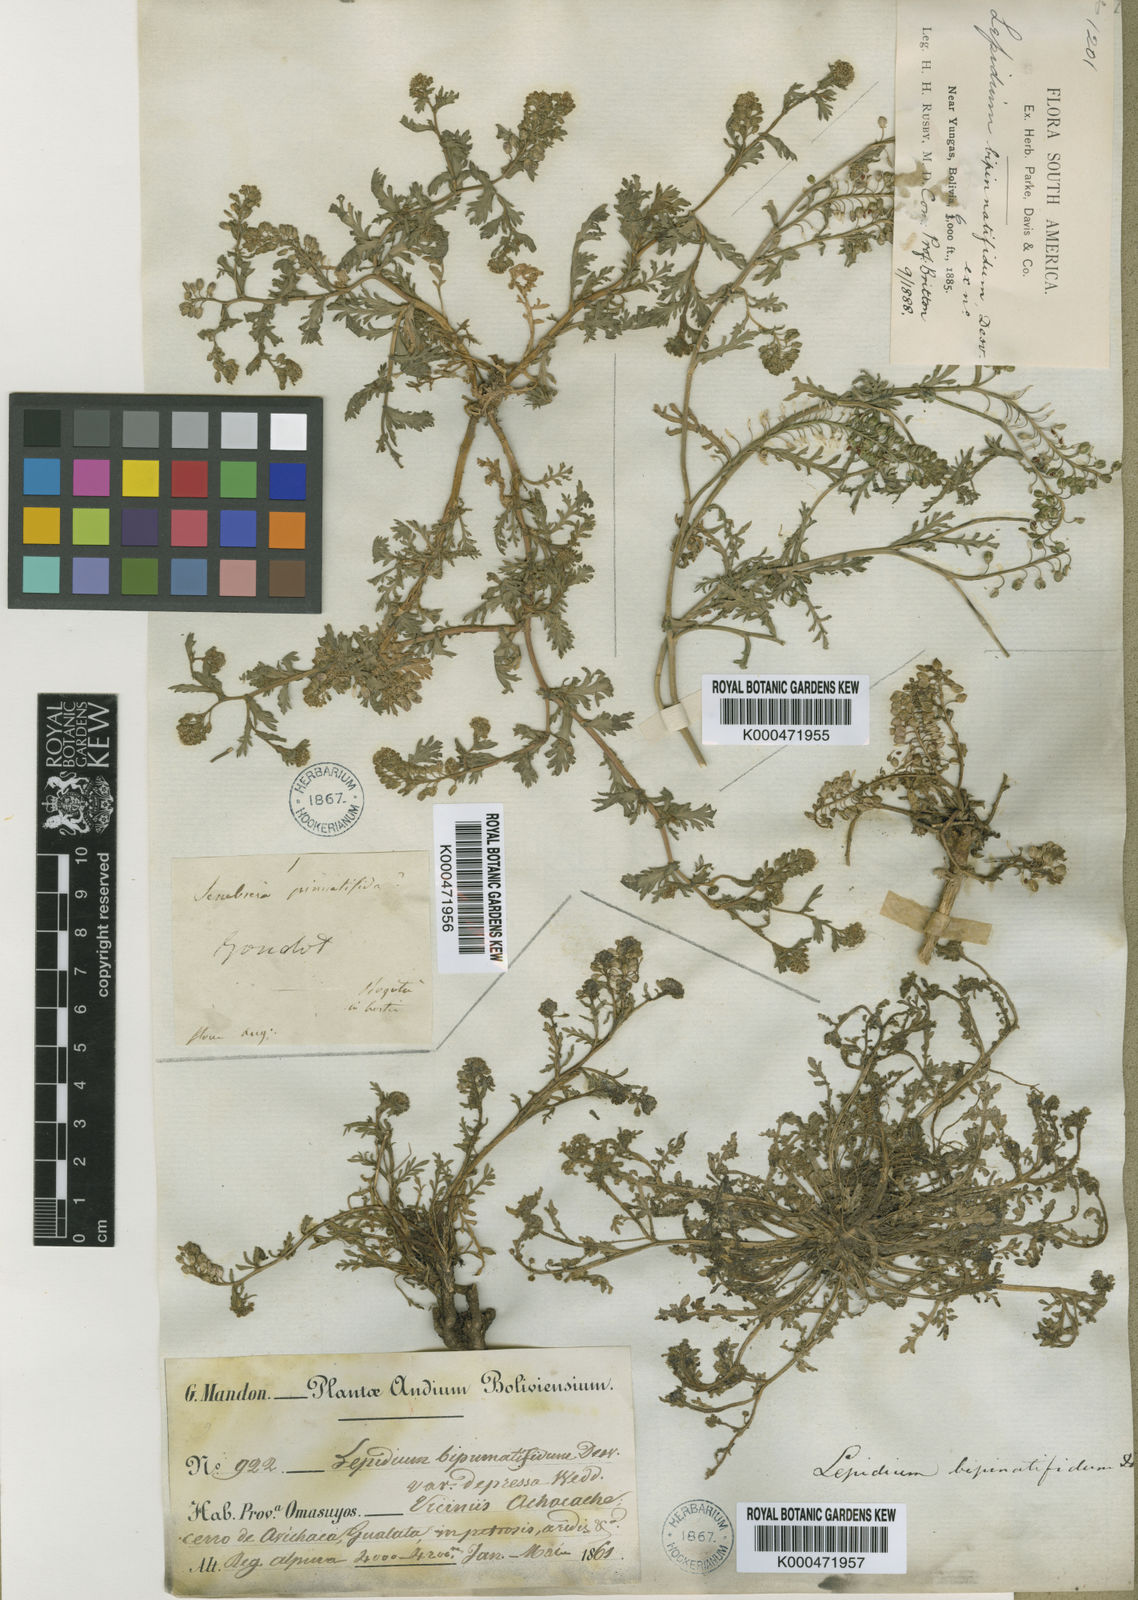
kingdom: Plantae
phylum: Tracheophyta
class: Magnoliopsida
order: Brassicales
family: Brassicaceae
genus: Lepidium
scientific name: Lepidium bipinnatifidum
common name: Wayside pepperwort
